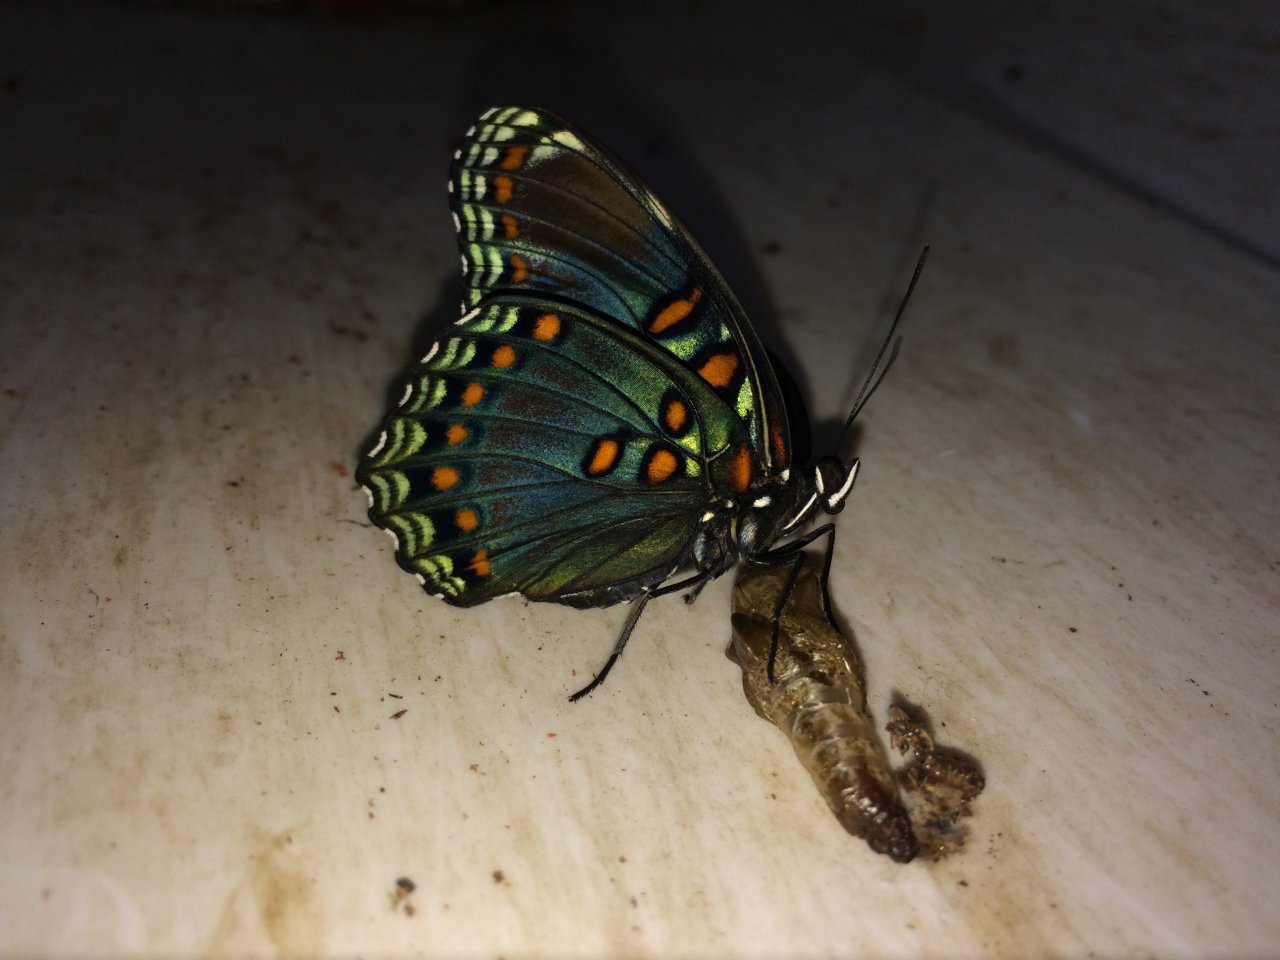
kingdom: Animalia
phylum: Arthropoda
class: Insecta
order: Lepidoptera
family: Nymphalidae
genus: Limenitis
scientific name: Limenitis astyanax
